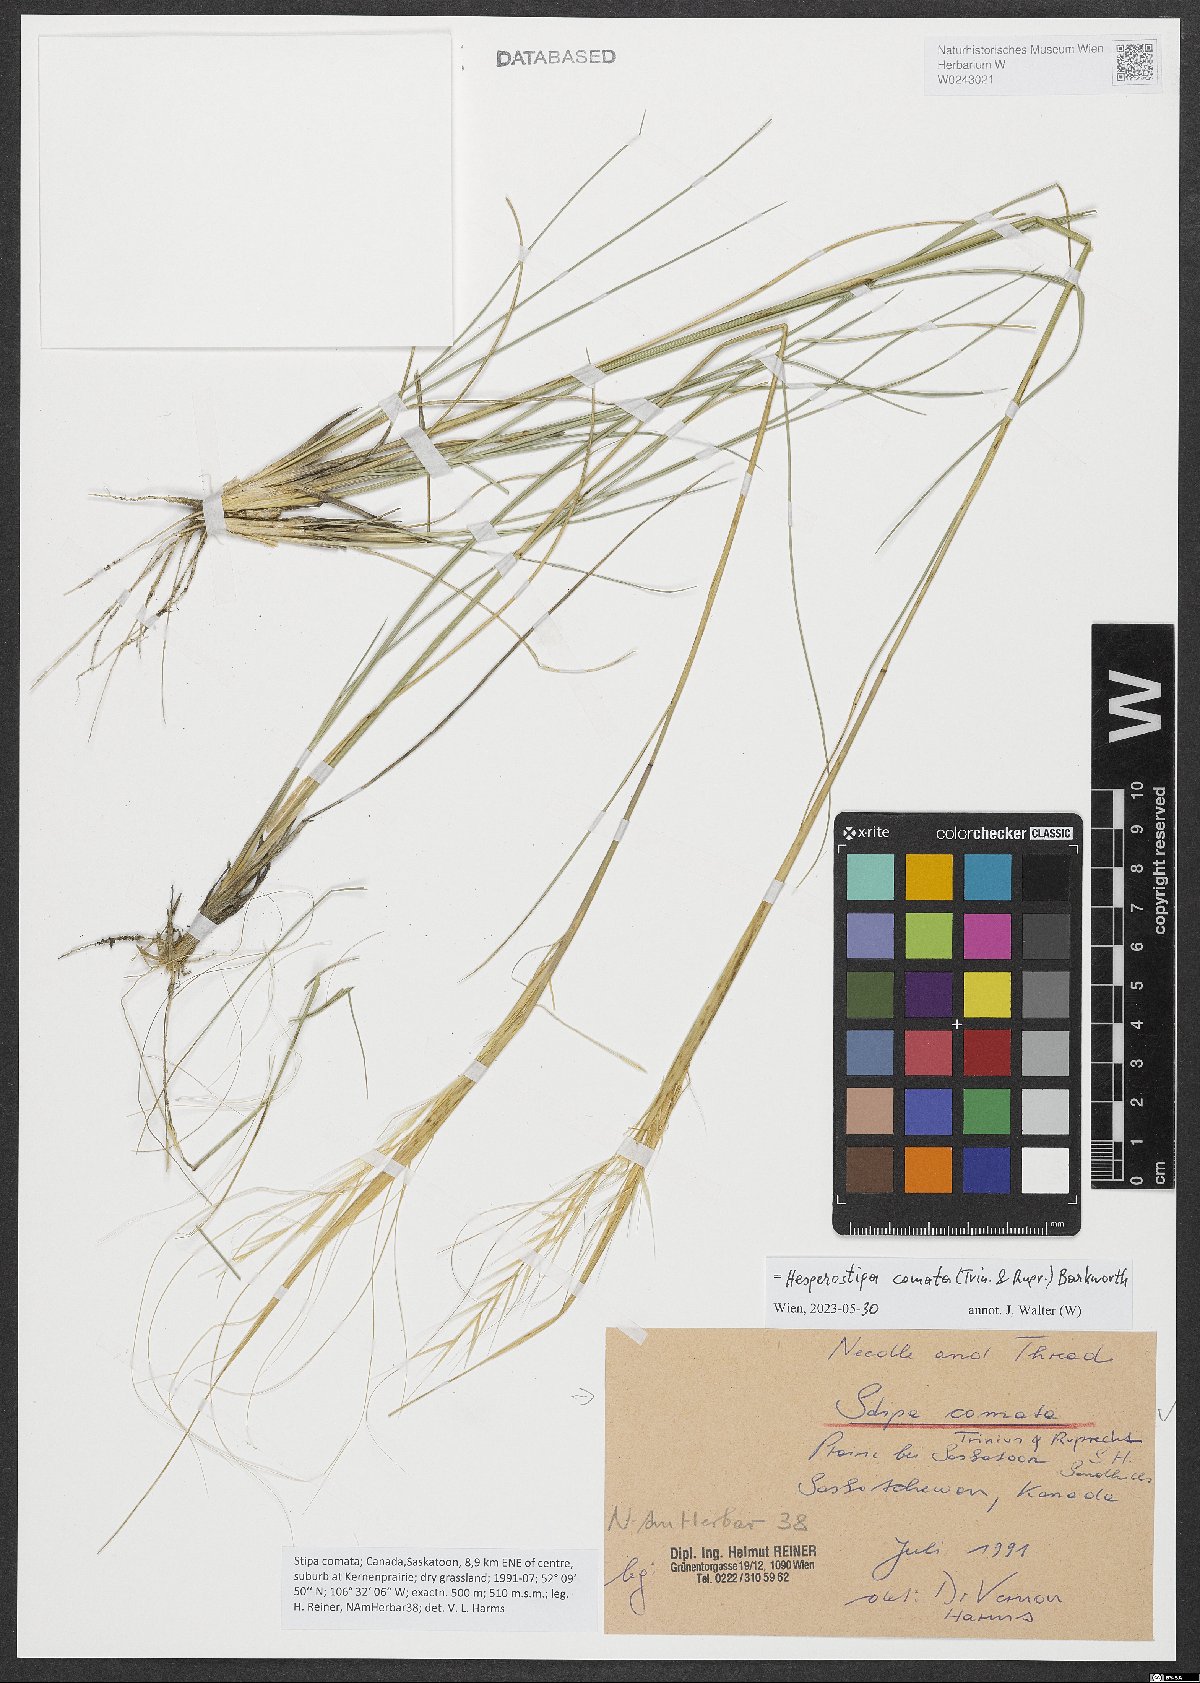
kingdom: Plantae
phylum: Tracheophyta
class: Liliopsida
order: Poales
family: Poaceae
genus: Hesperostipa
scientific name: Hesperostipa comata
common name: Needle-and-thread grass
